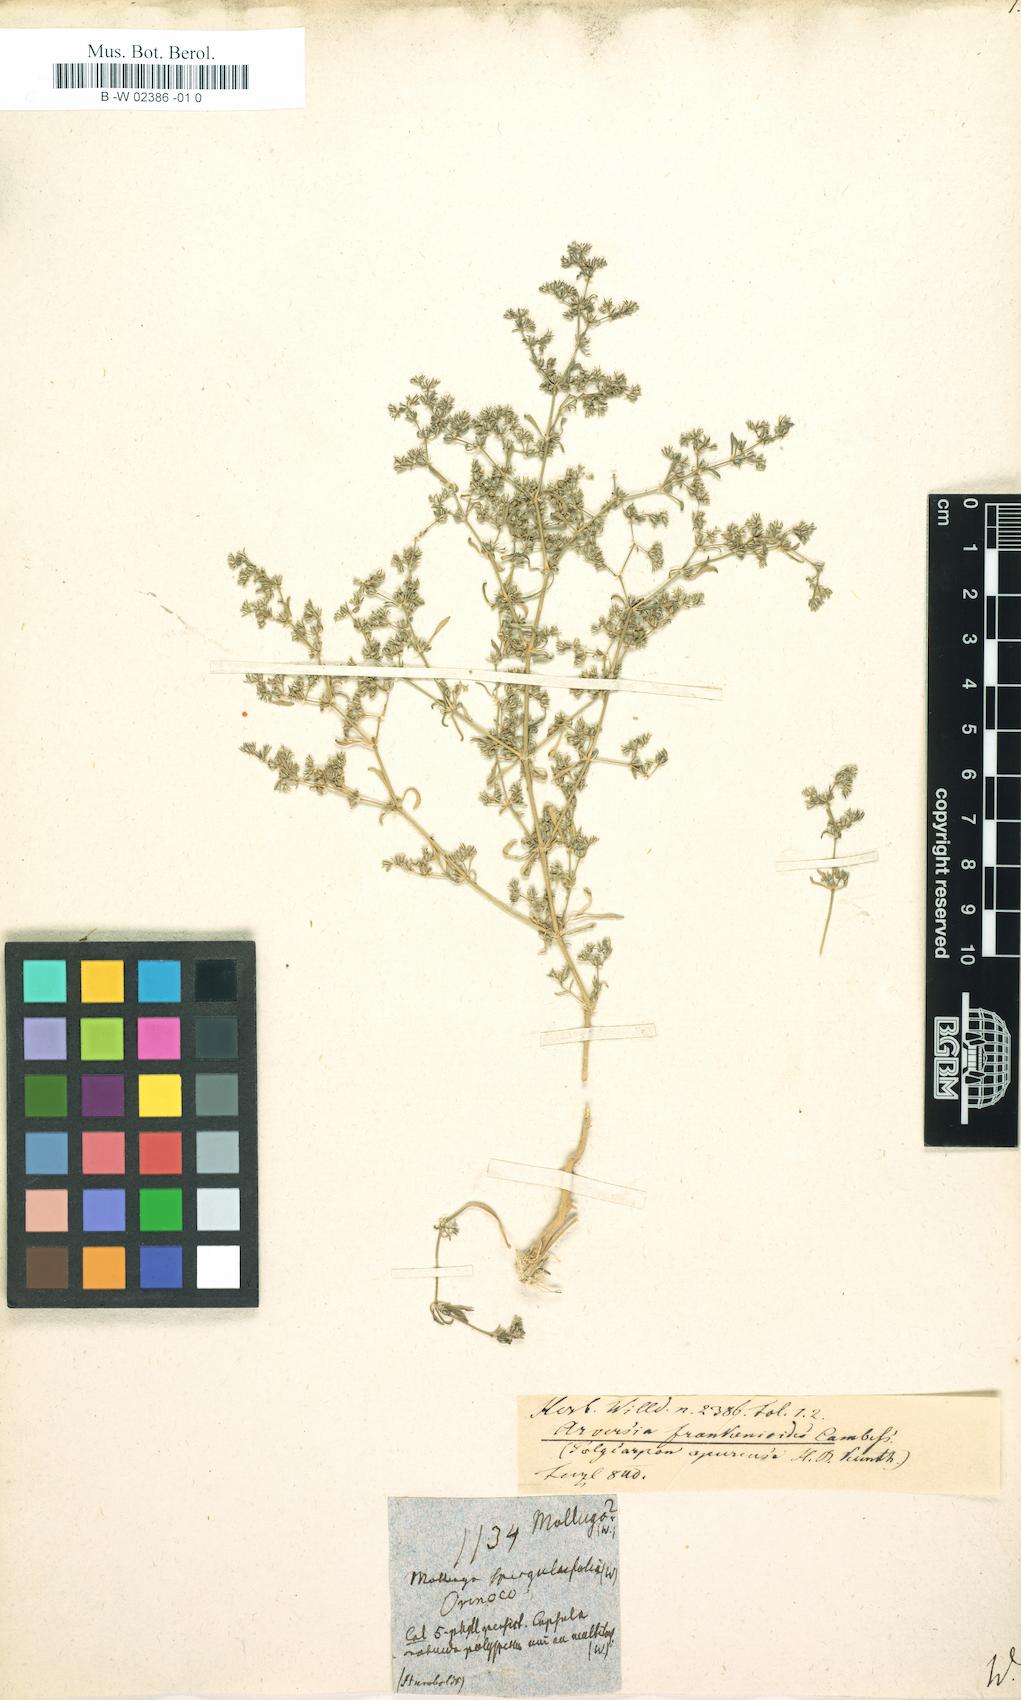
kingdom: Plantae
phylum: Tracheophyta
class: Magnoliopsida
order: Caryophyllales
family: Molluginaceae
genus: Mollugo
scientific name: Mollugo verticillata
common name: Green carpetweed
